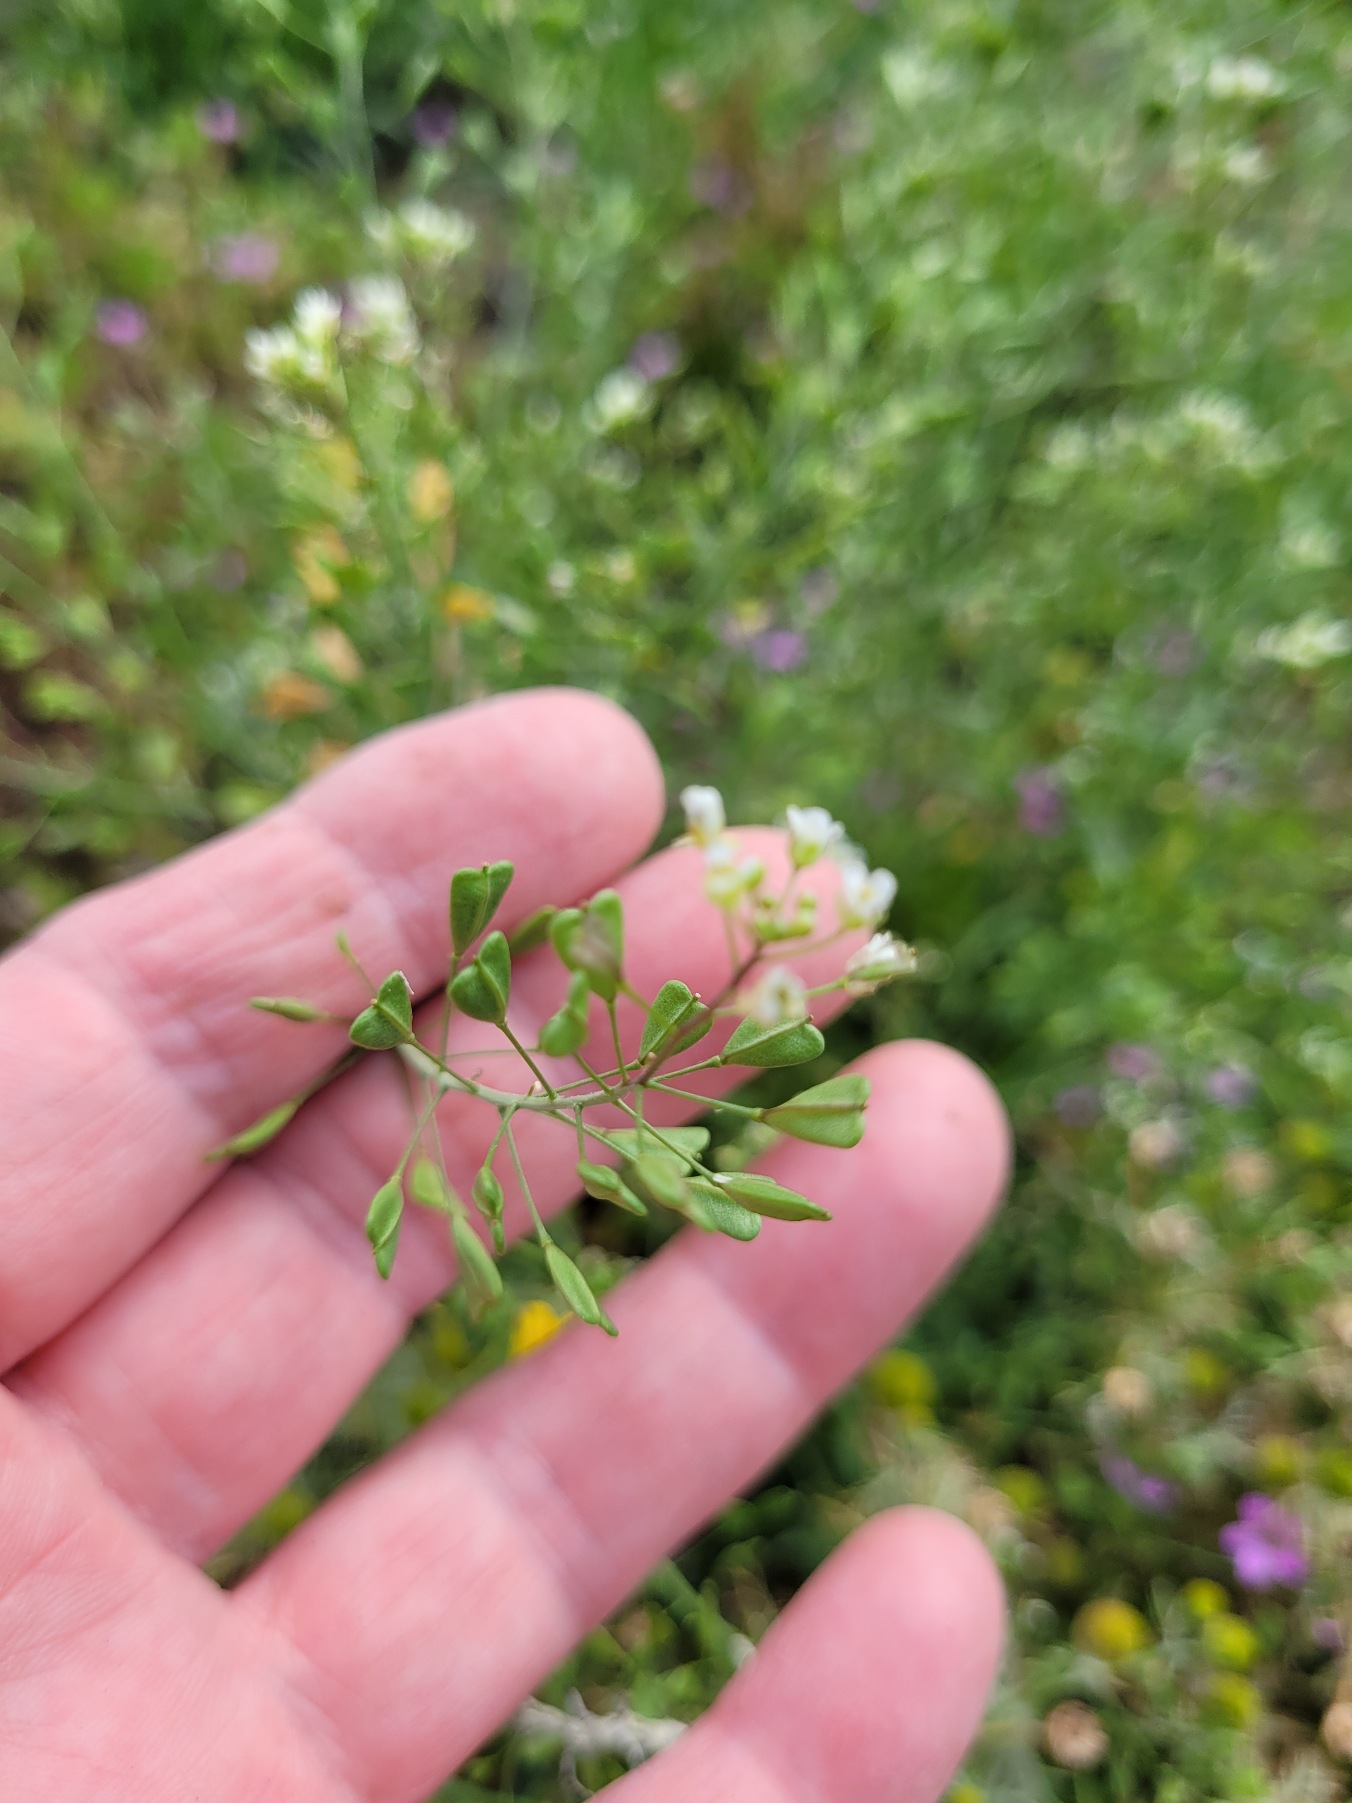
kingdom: Plantae
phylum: Tracheophyta
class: Magnoliopsida
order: Brassicales
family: Brassicaceae
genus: Capsella
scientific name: Capsella bursa-pastoris
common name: Hyrdetaske
